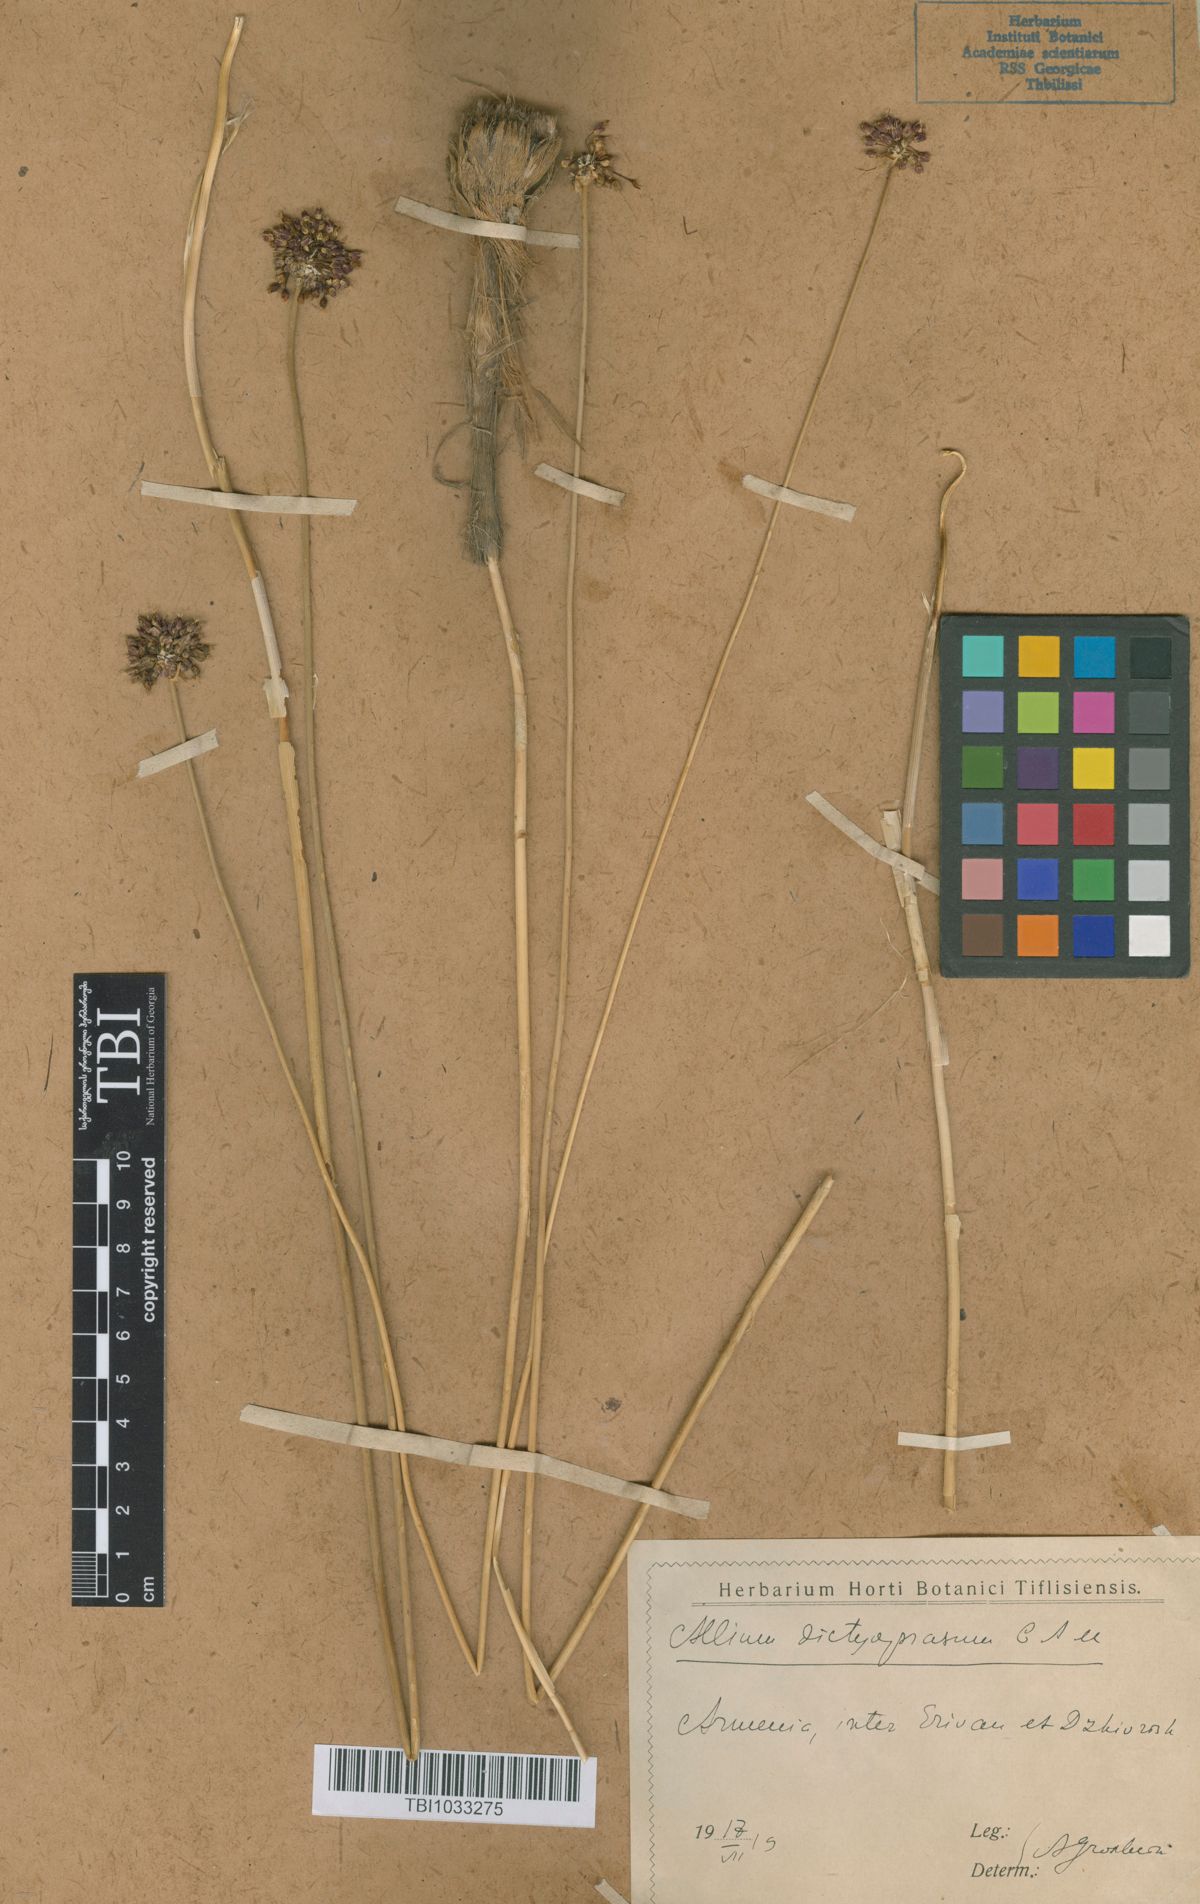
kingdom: Plantae
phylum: Tracheophyta
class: Liliopsida
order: Asparagales
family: Amaryllidaceae
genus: Allium
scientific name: Allium dictyoprasum
